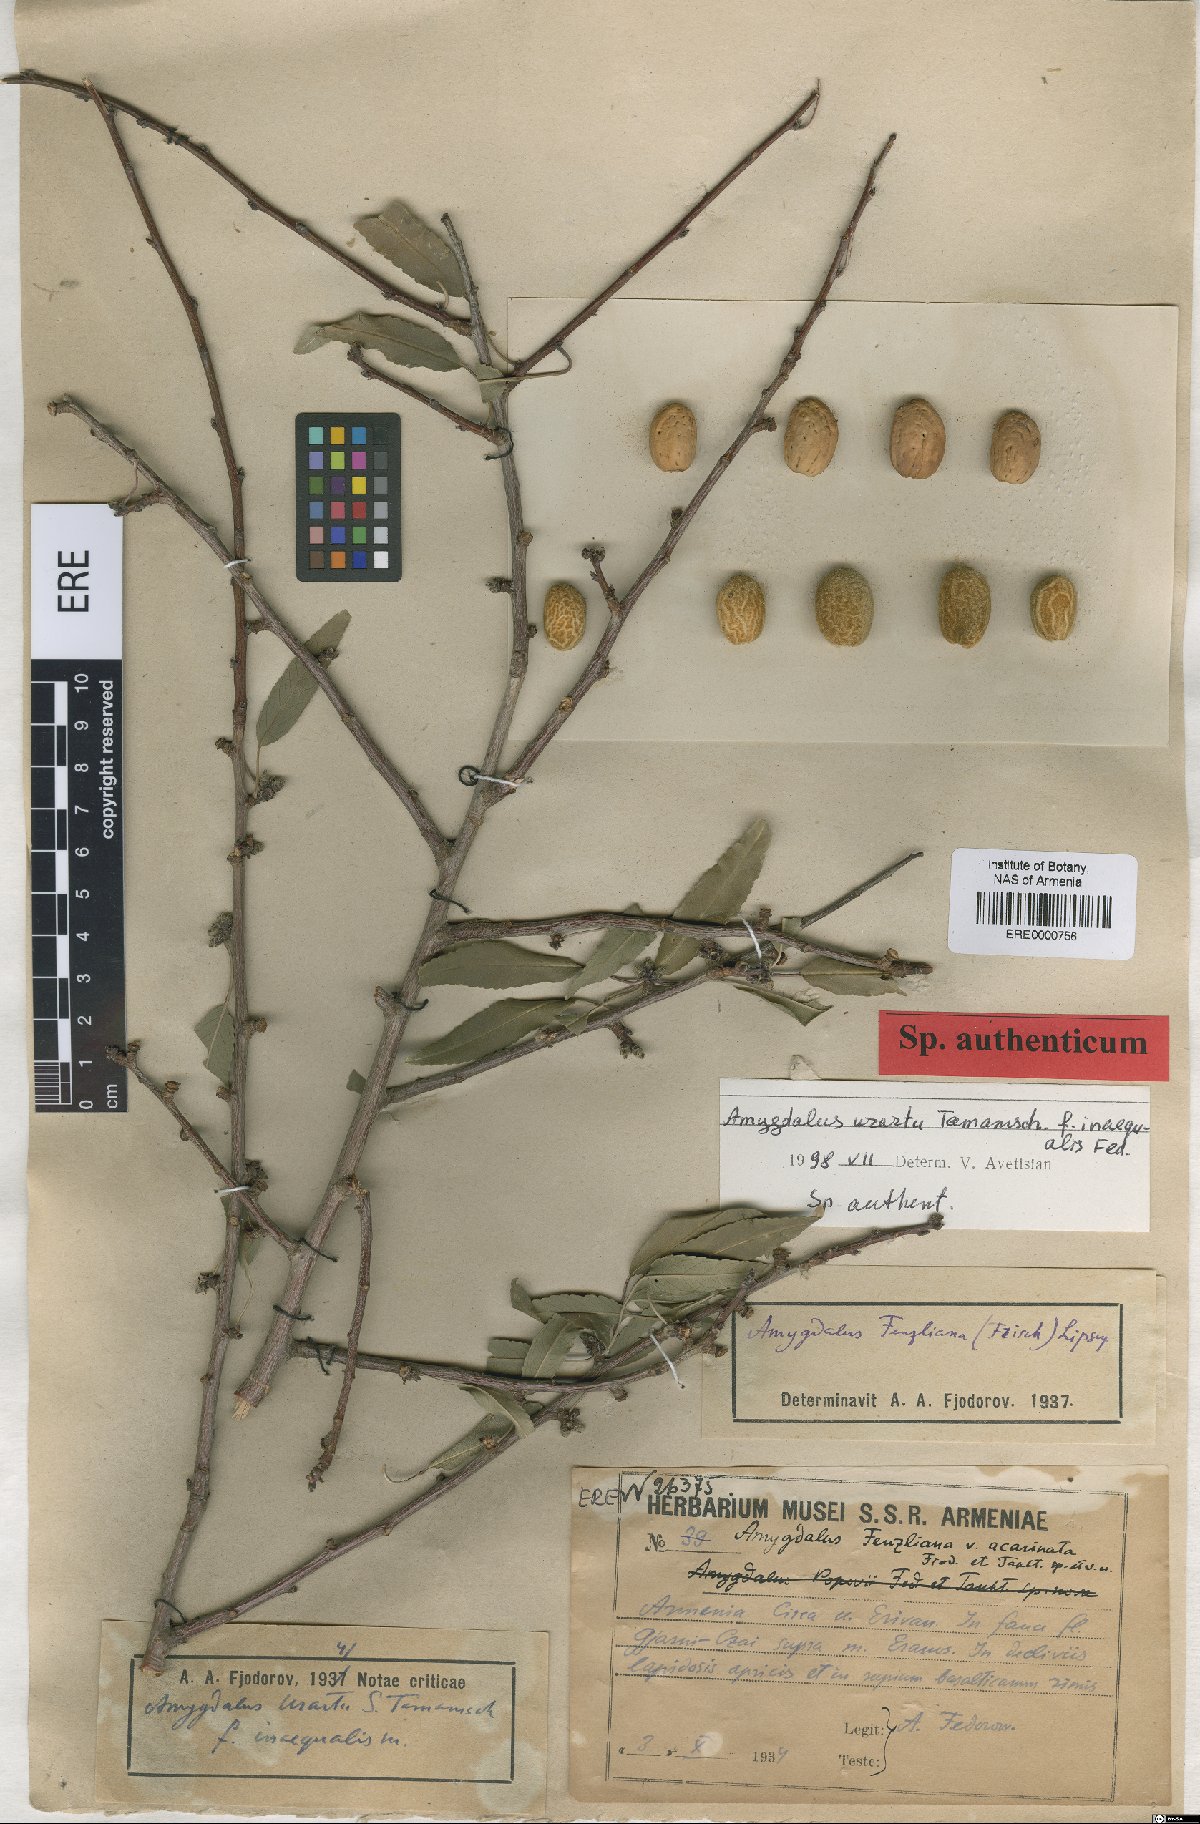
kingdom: Plantae
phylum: Tracheophyta
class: Magnoliopsida
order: Rosales
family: Rosaceae
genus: Prunus
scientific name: Prunus urartu
